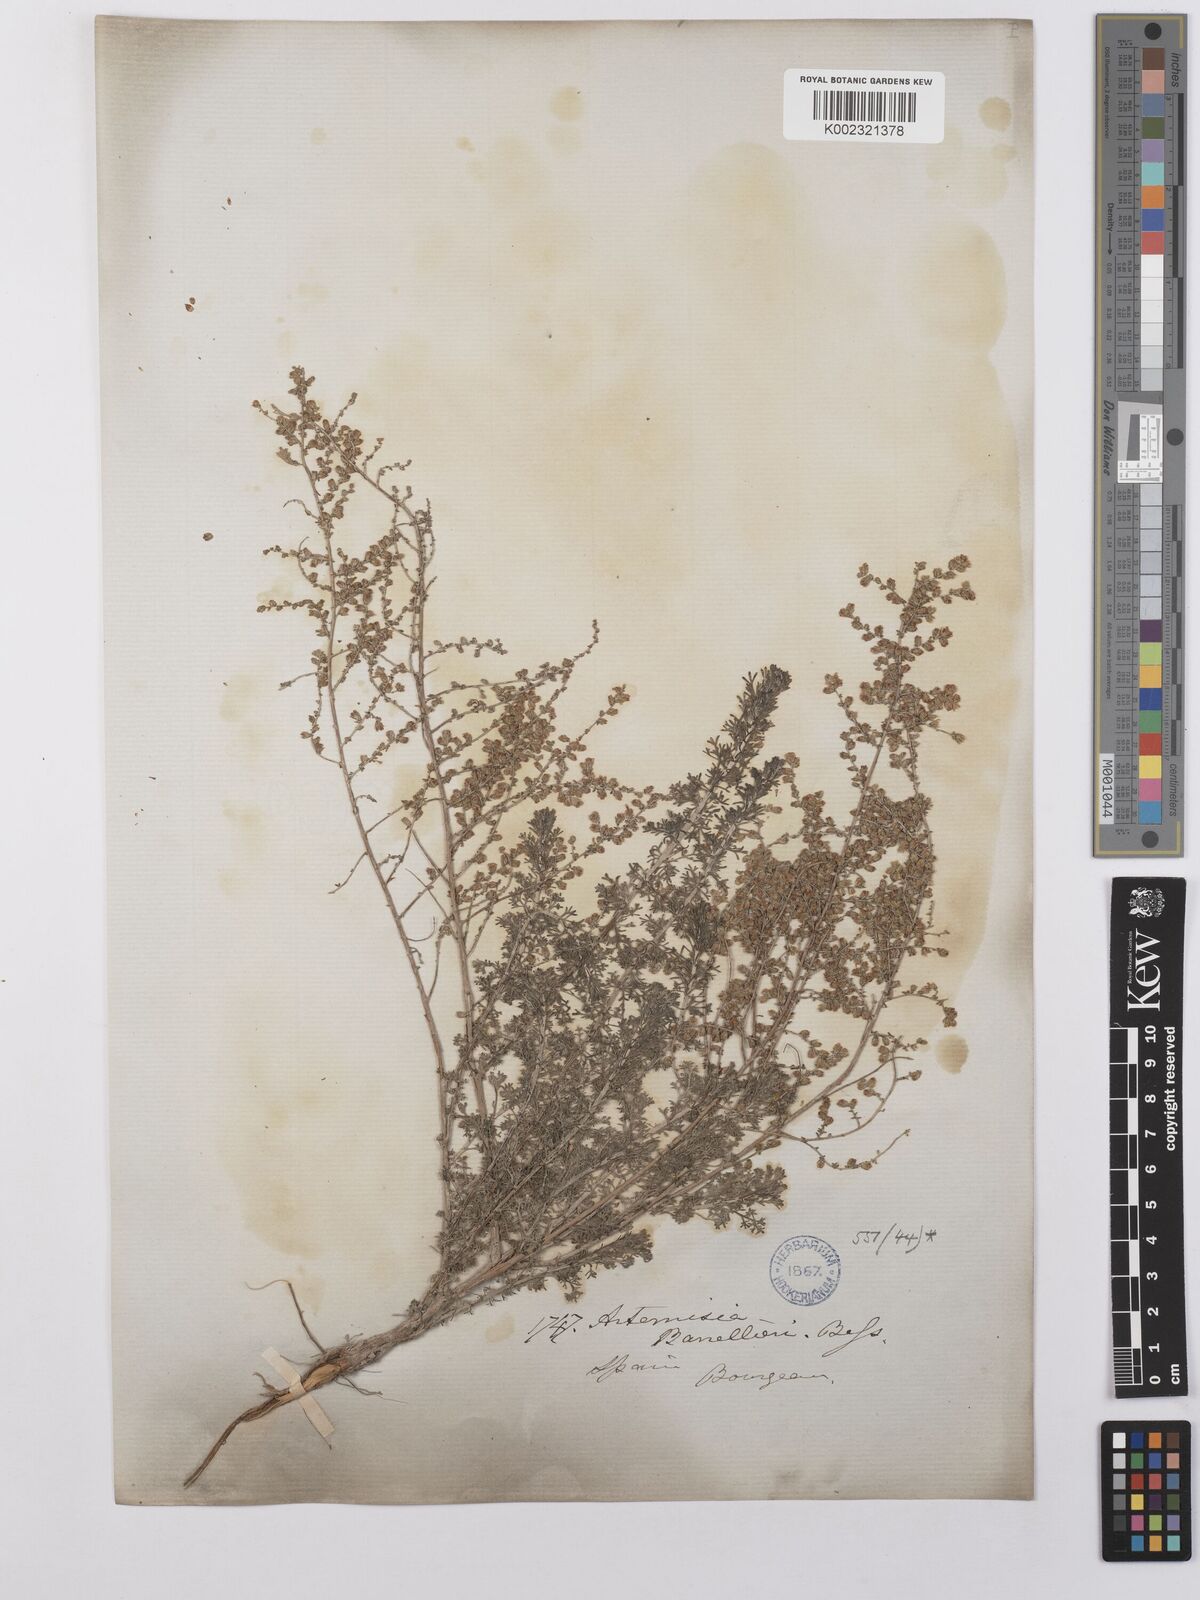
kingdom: Plantae
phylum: Tracheophyta
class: Magnoliopsida
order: Asterales
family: Asteraceae
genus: Artemisia
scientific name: Artemisia barrelieri
